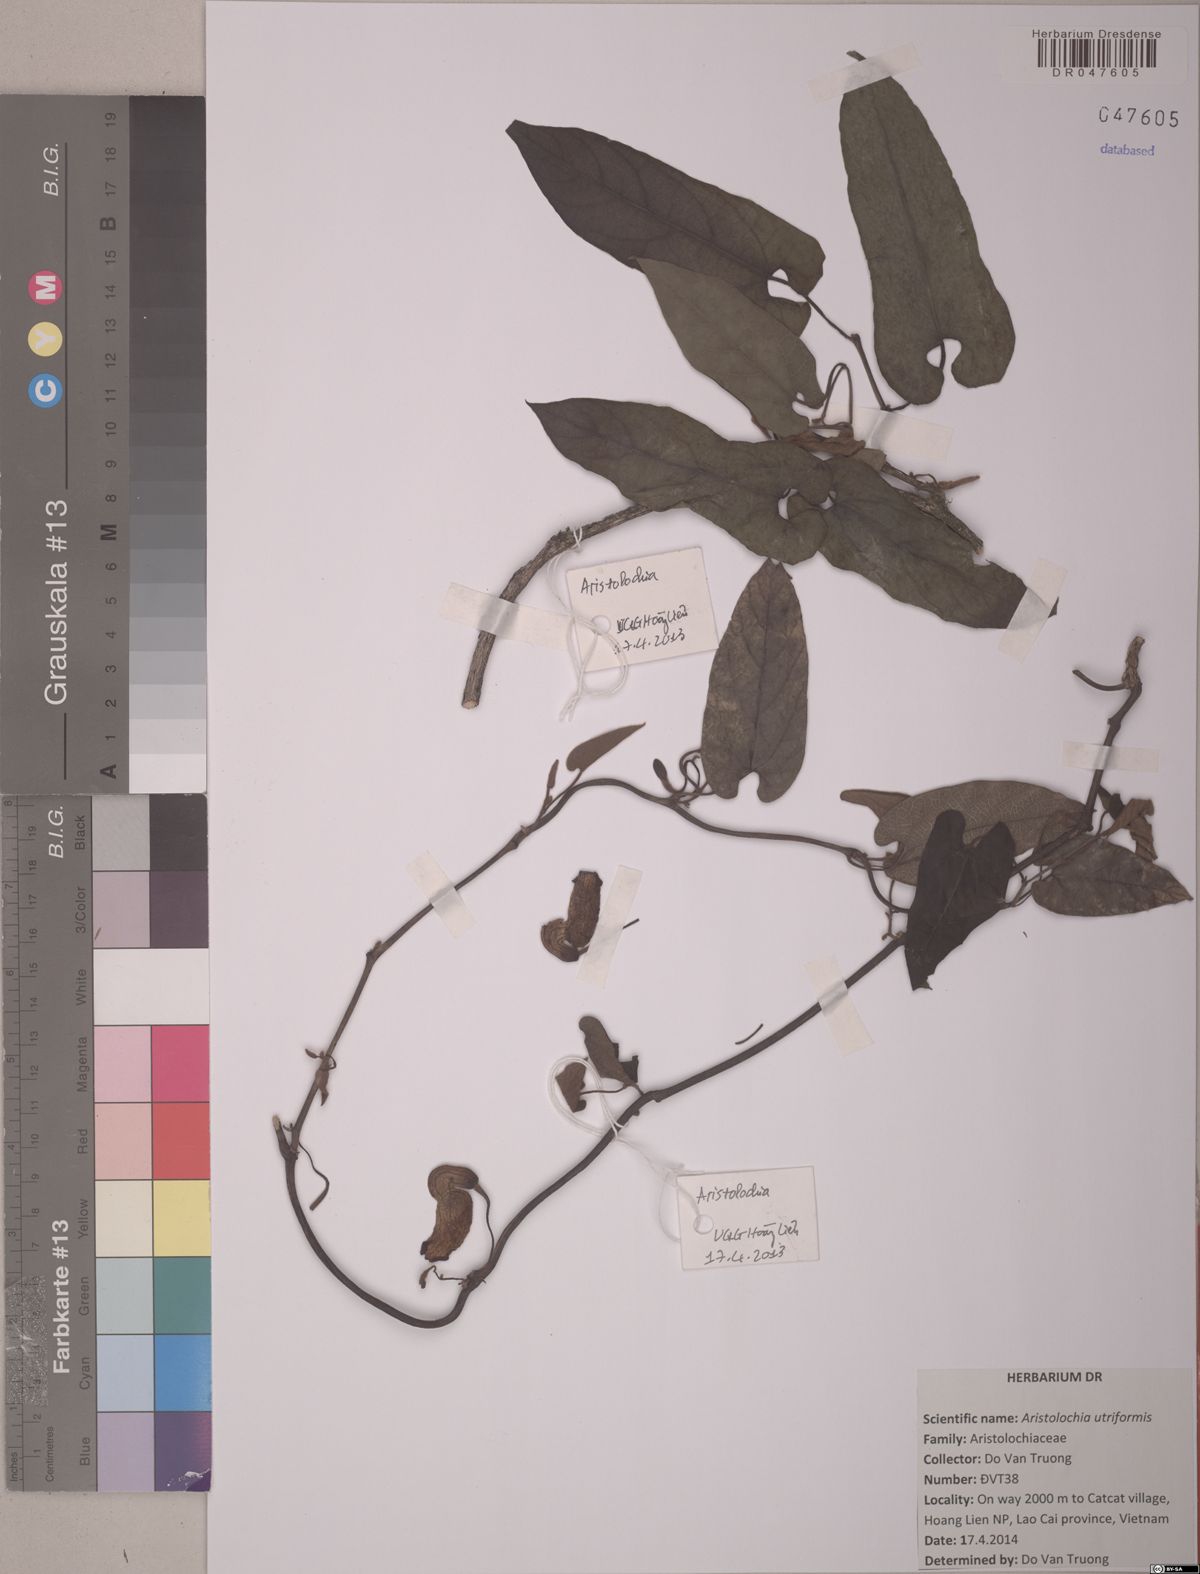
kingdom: Plantae
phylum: Tracheophyta
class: Magnoliopsida
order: Piperales
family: Aristolochiaceae
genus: Isotrema
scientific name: Isotrema utriforme
